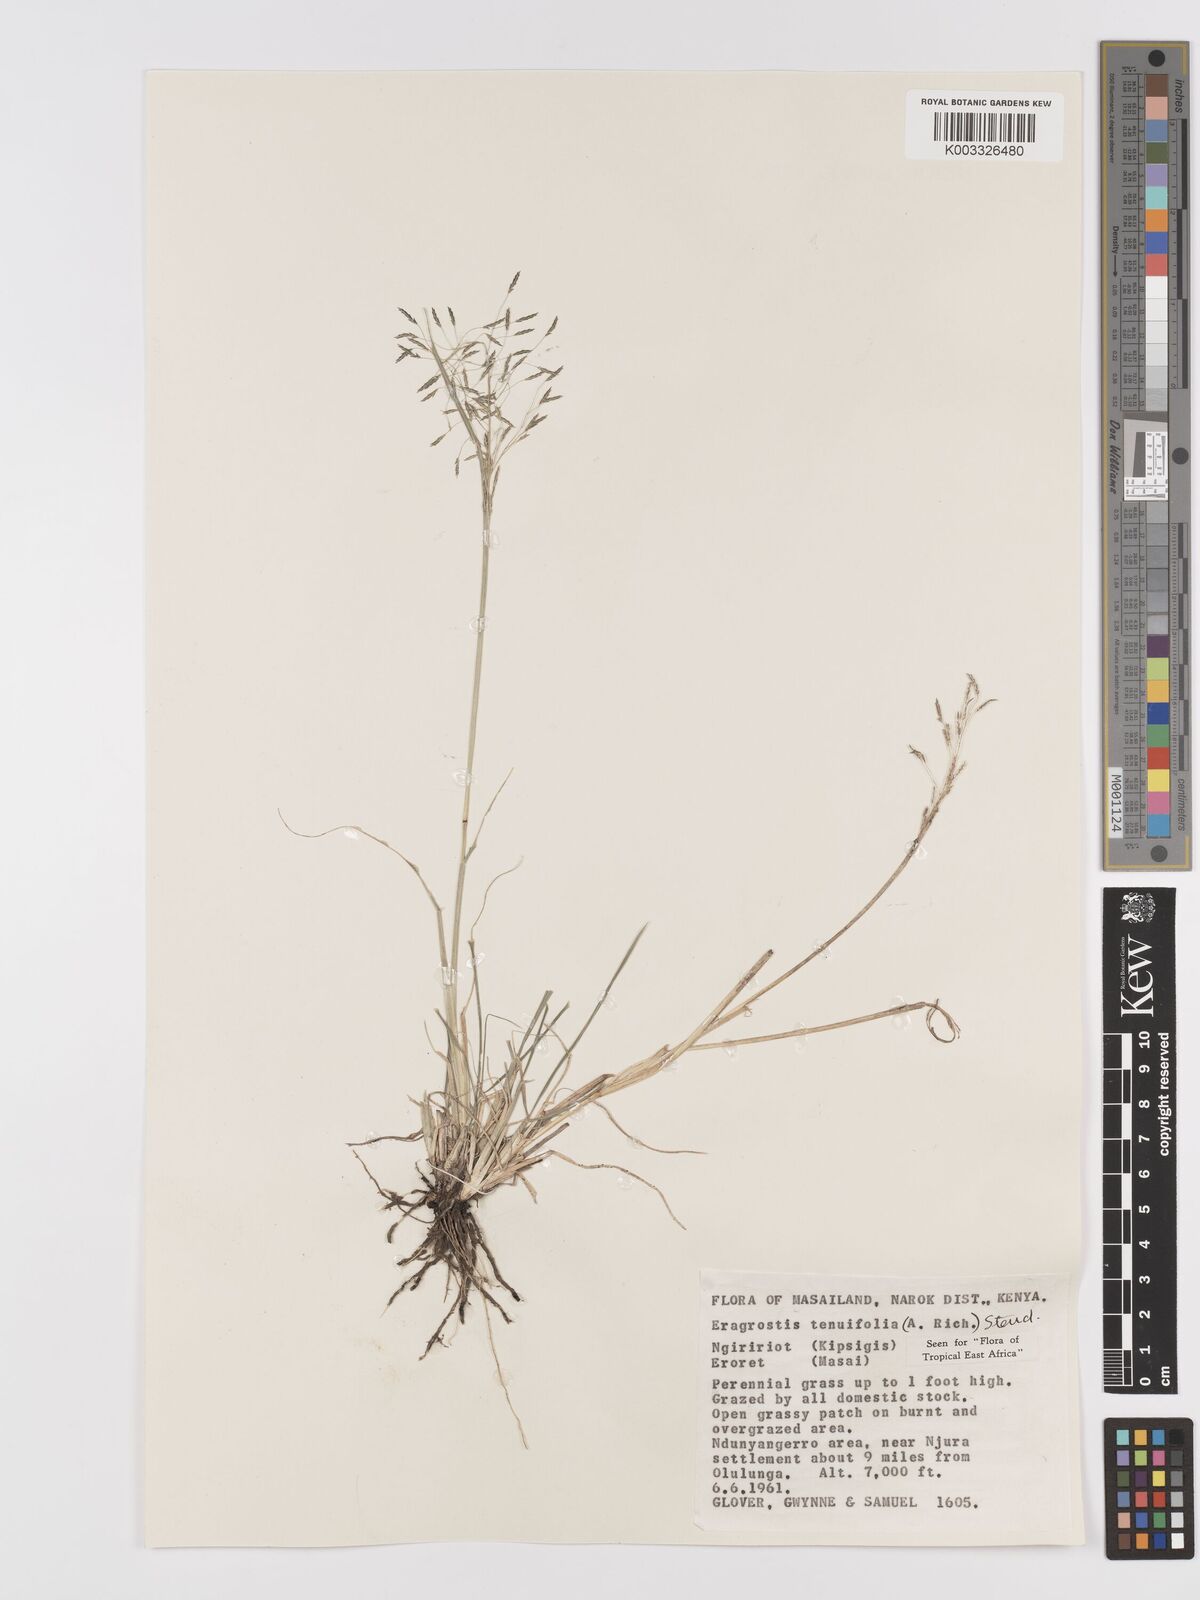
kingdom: Plantae
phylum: Tracheophyta
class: Liliopsida
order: Poales
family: Poaceae
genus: Eragrostis
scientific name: Eragrostis tenuifolia
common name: Elastic grass
